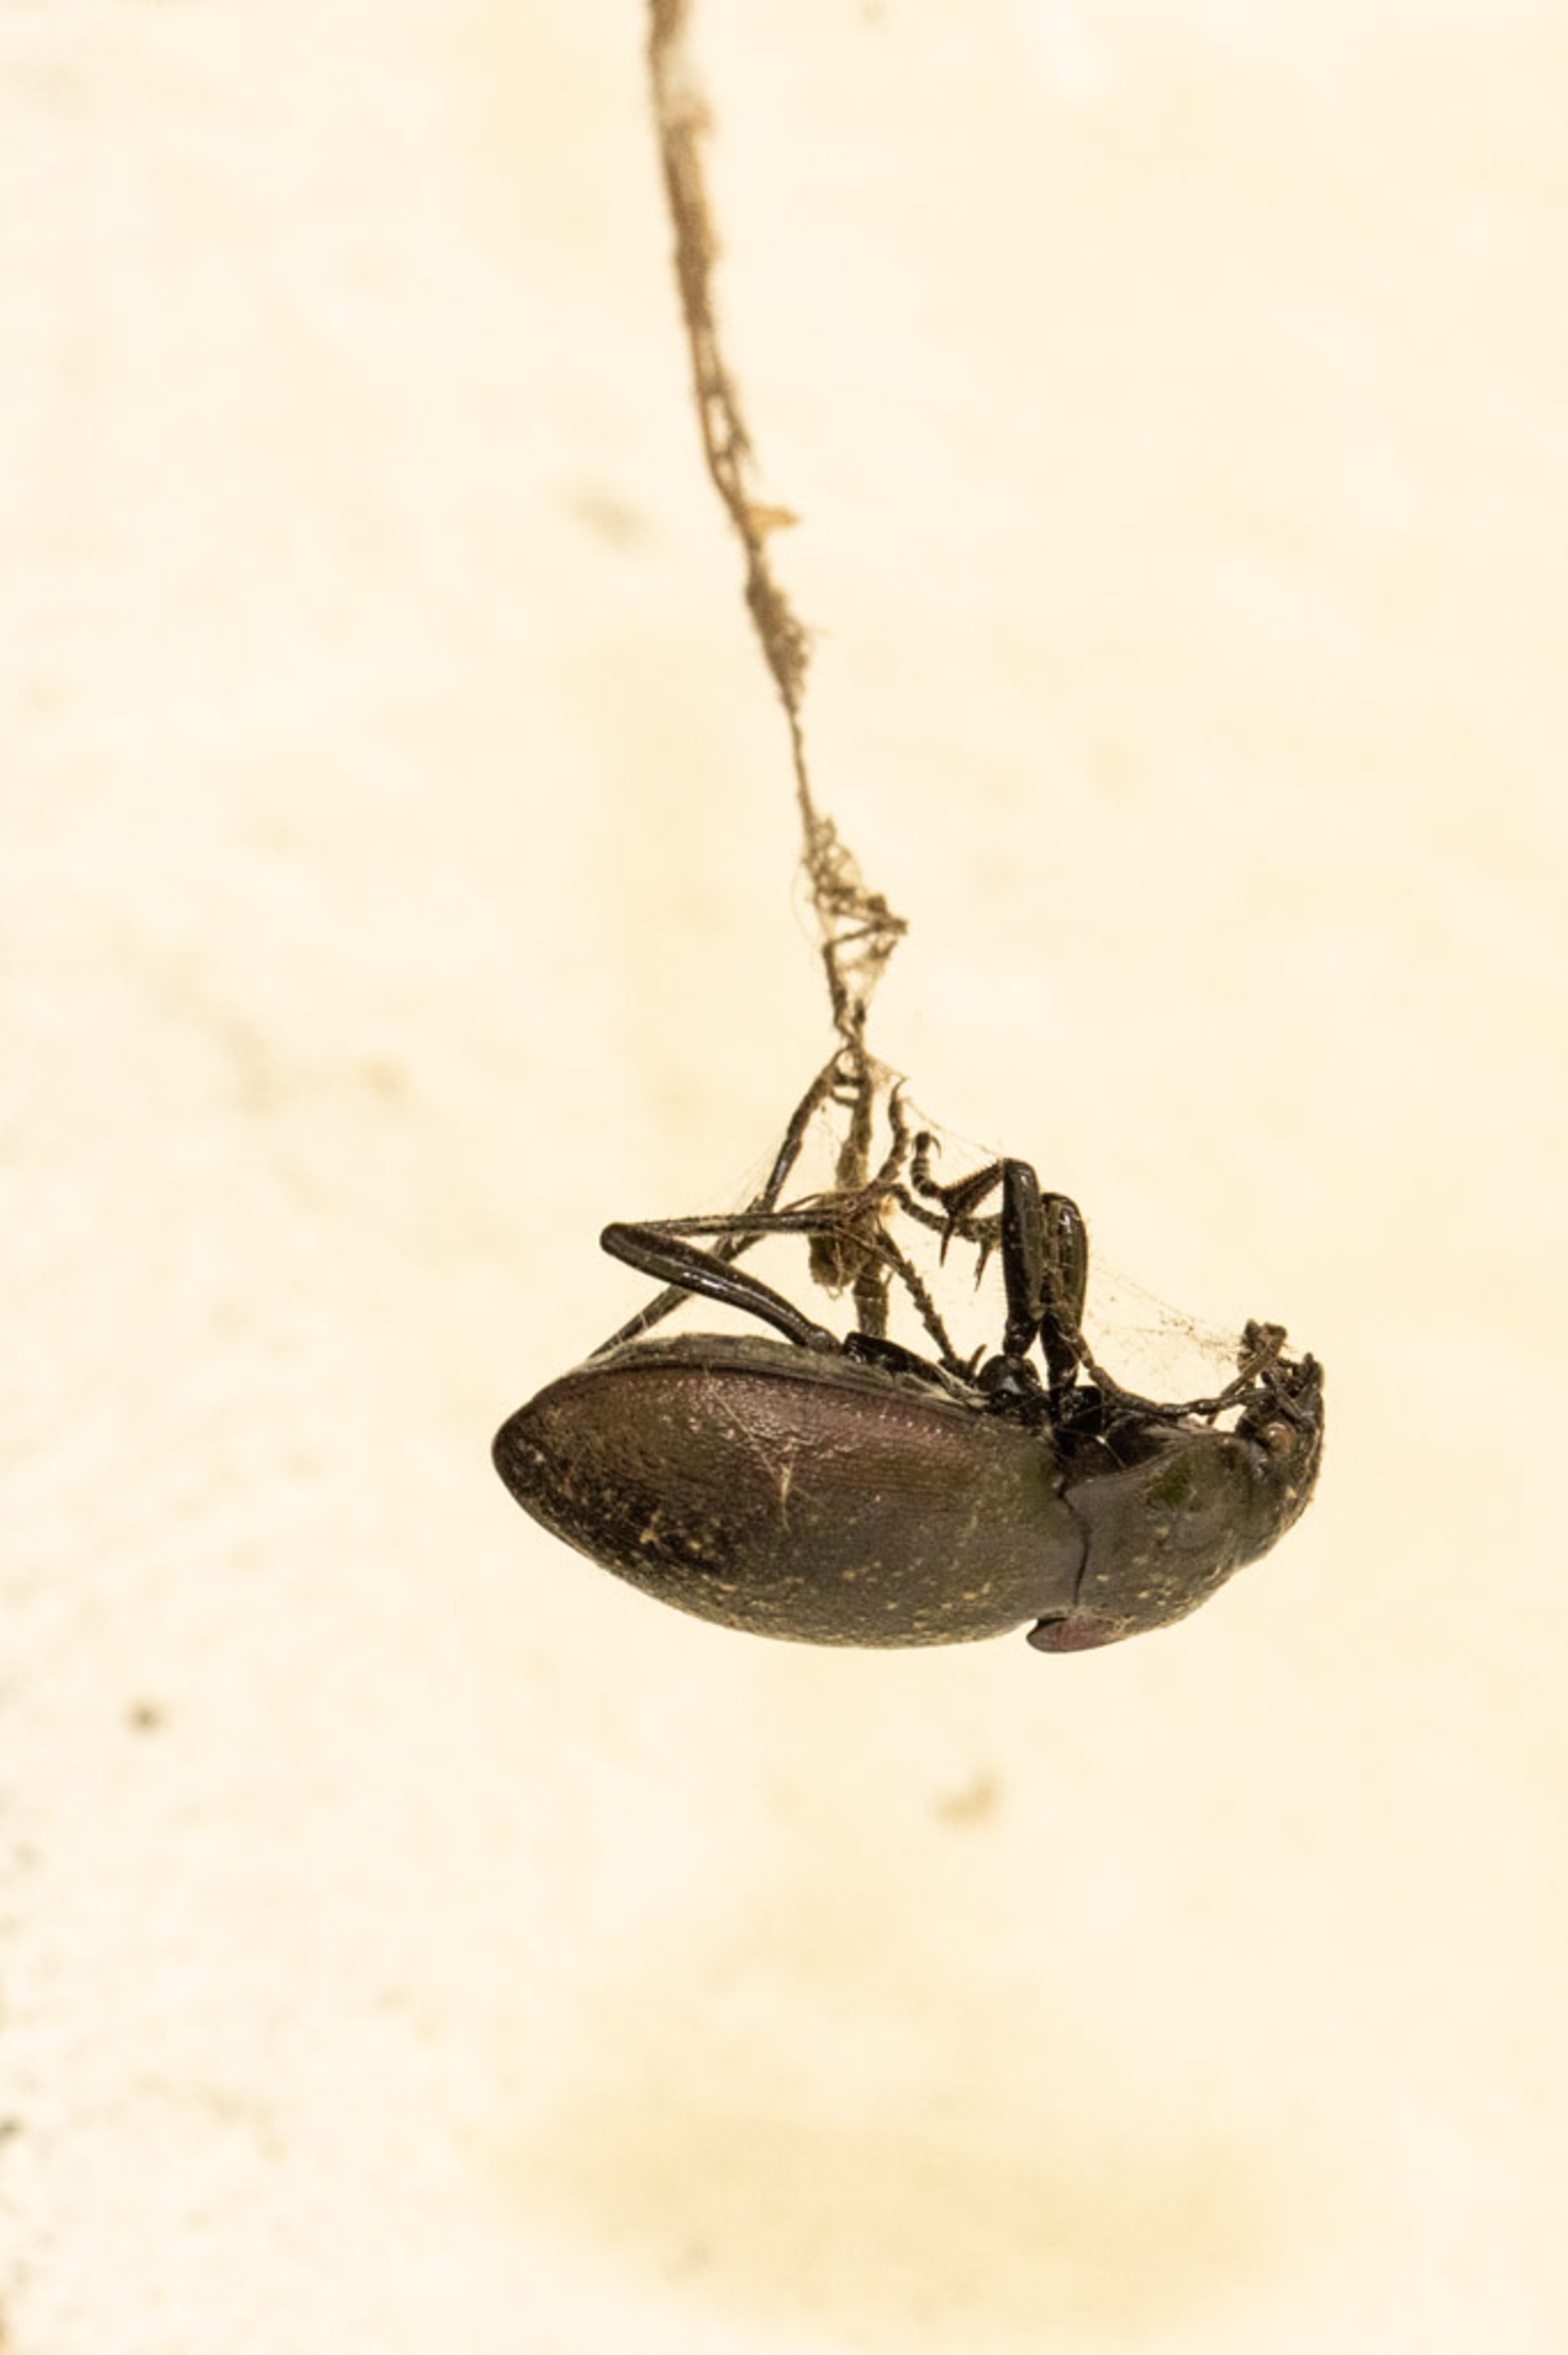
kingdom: Animalia
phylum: Arthropoda
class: Insecta
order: Coleoptera
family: Carabidae
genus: Carabus
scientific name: Carabus nemoralis
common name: Kratløber
